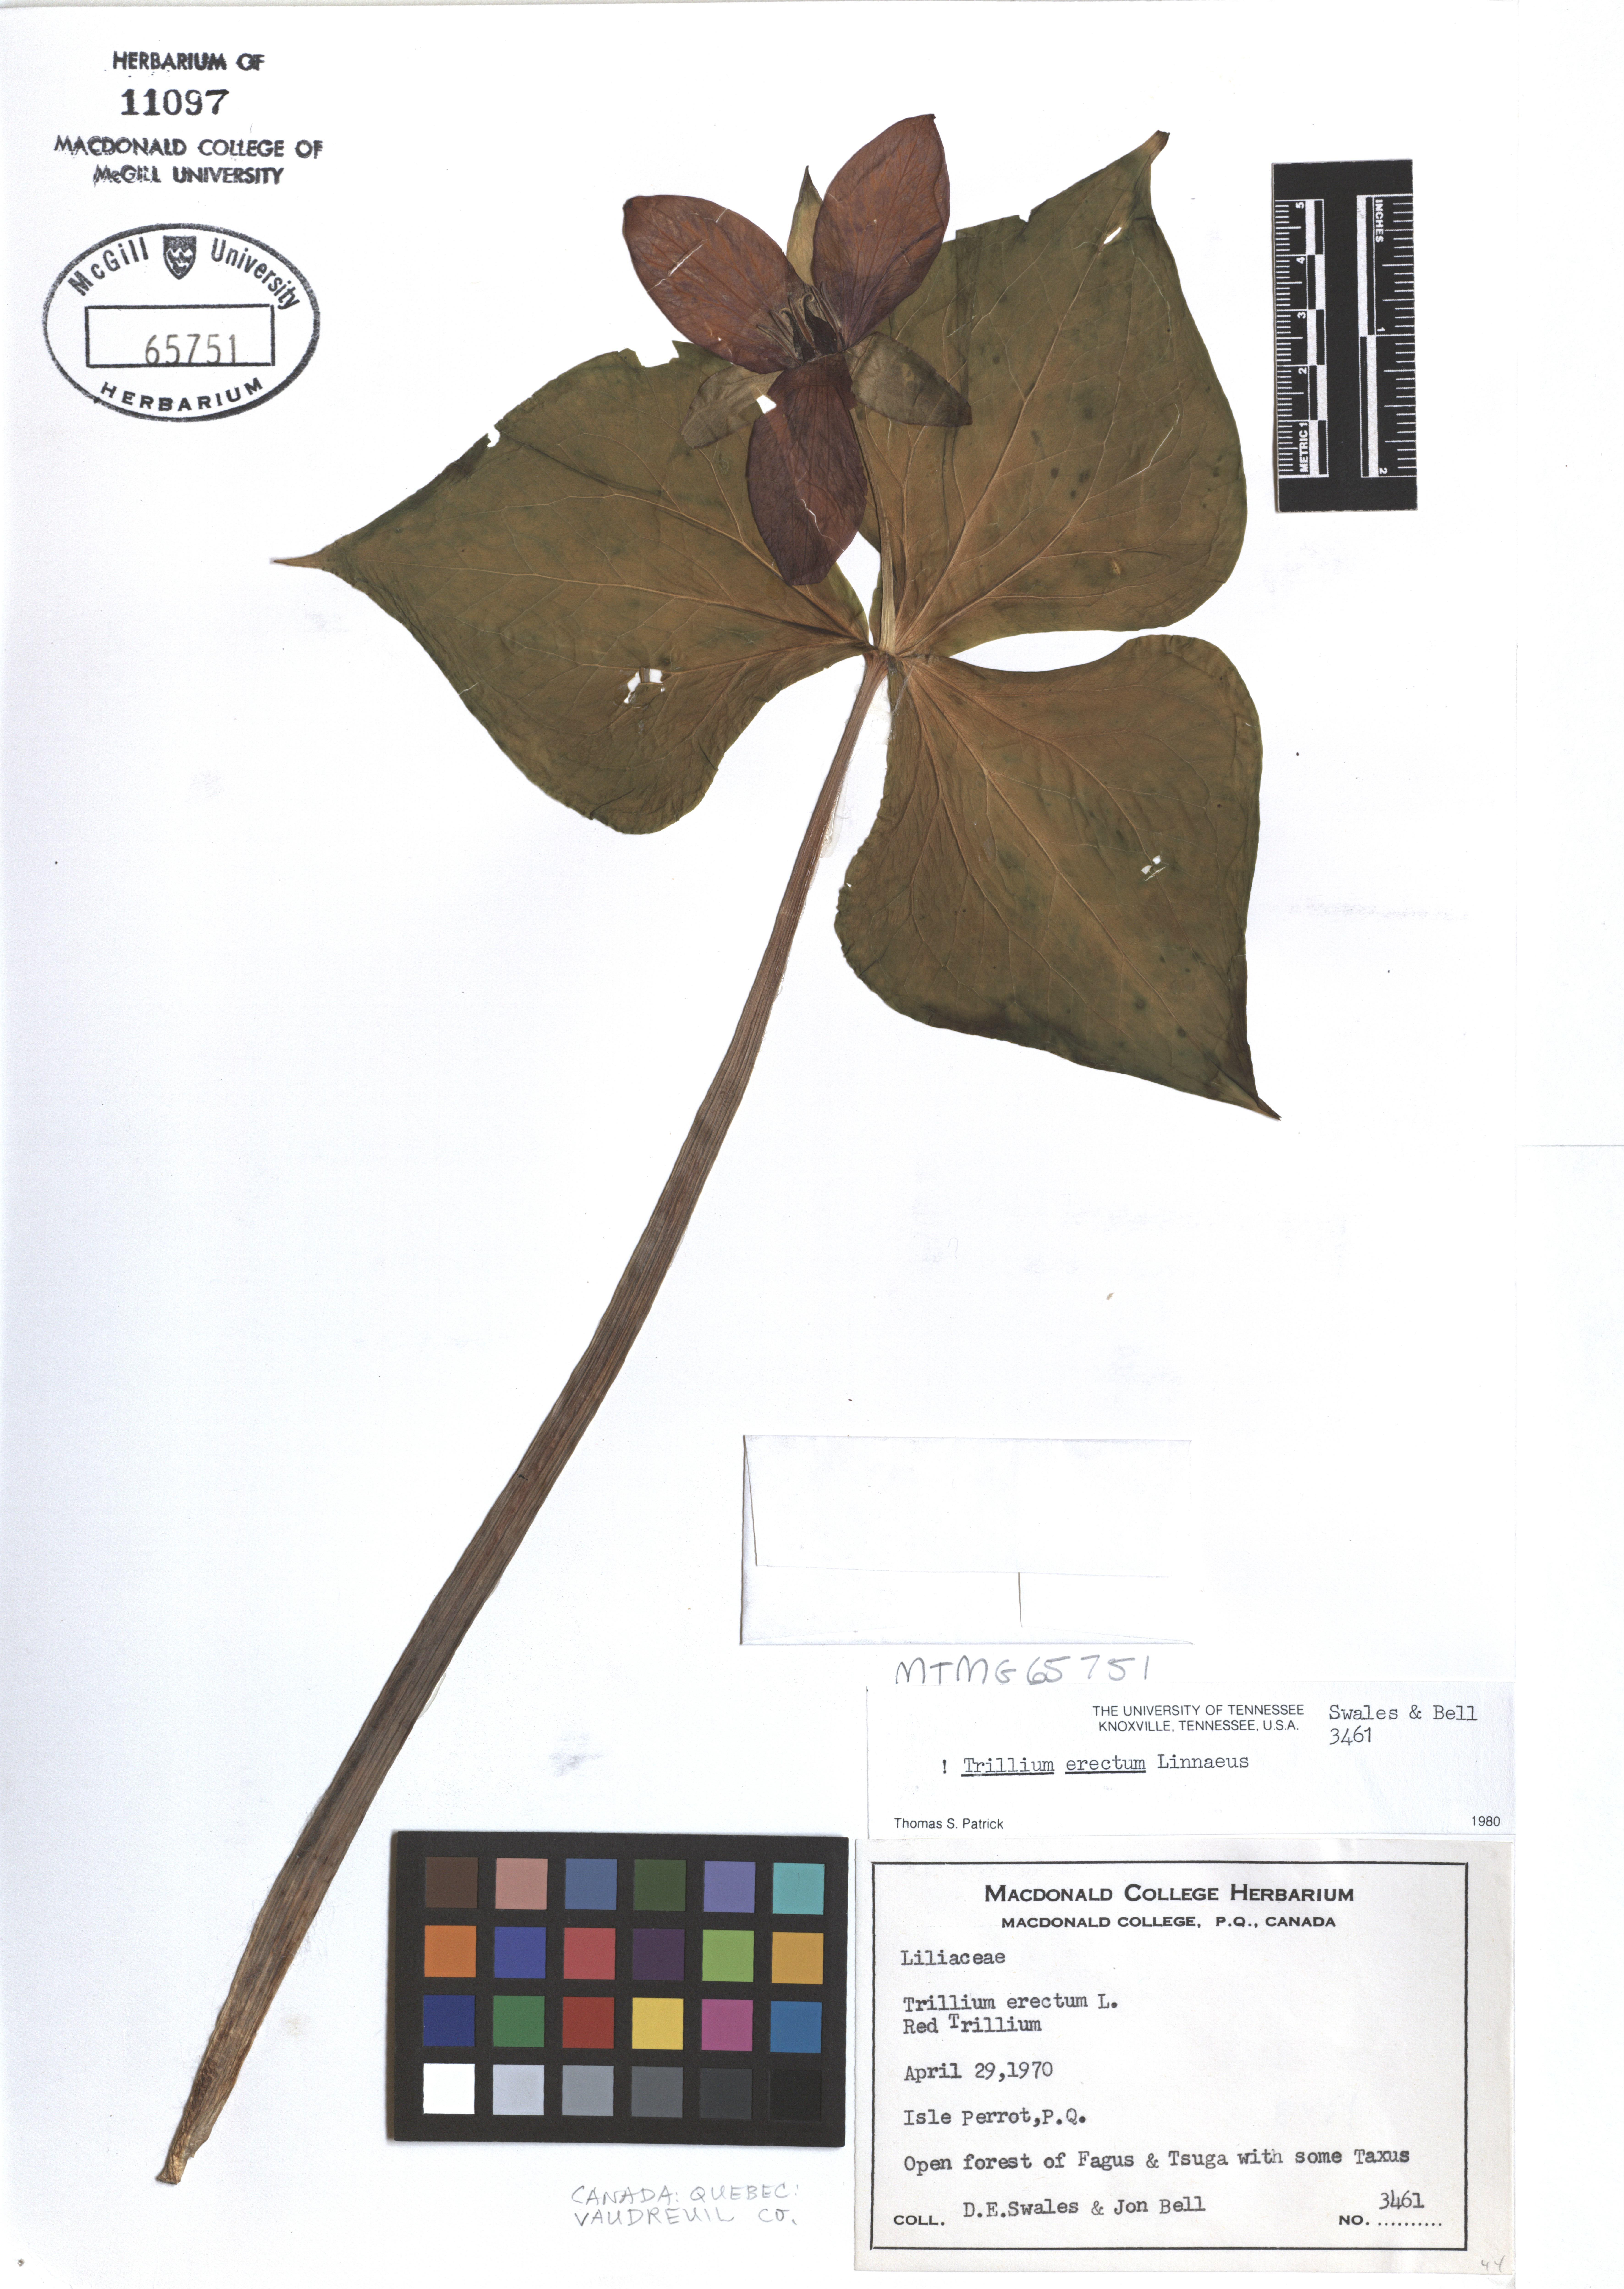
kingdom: Plantae
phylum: Tracheophyta
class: Liliopsida
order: Liliales
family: Melanthiaceae
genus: Trillium
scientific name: Trillium erectum
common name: Purple trillium
